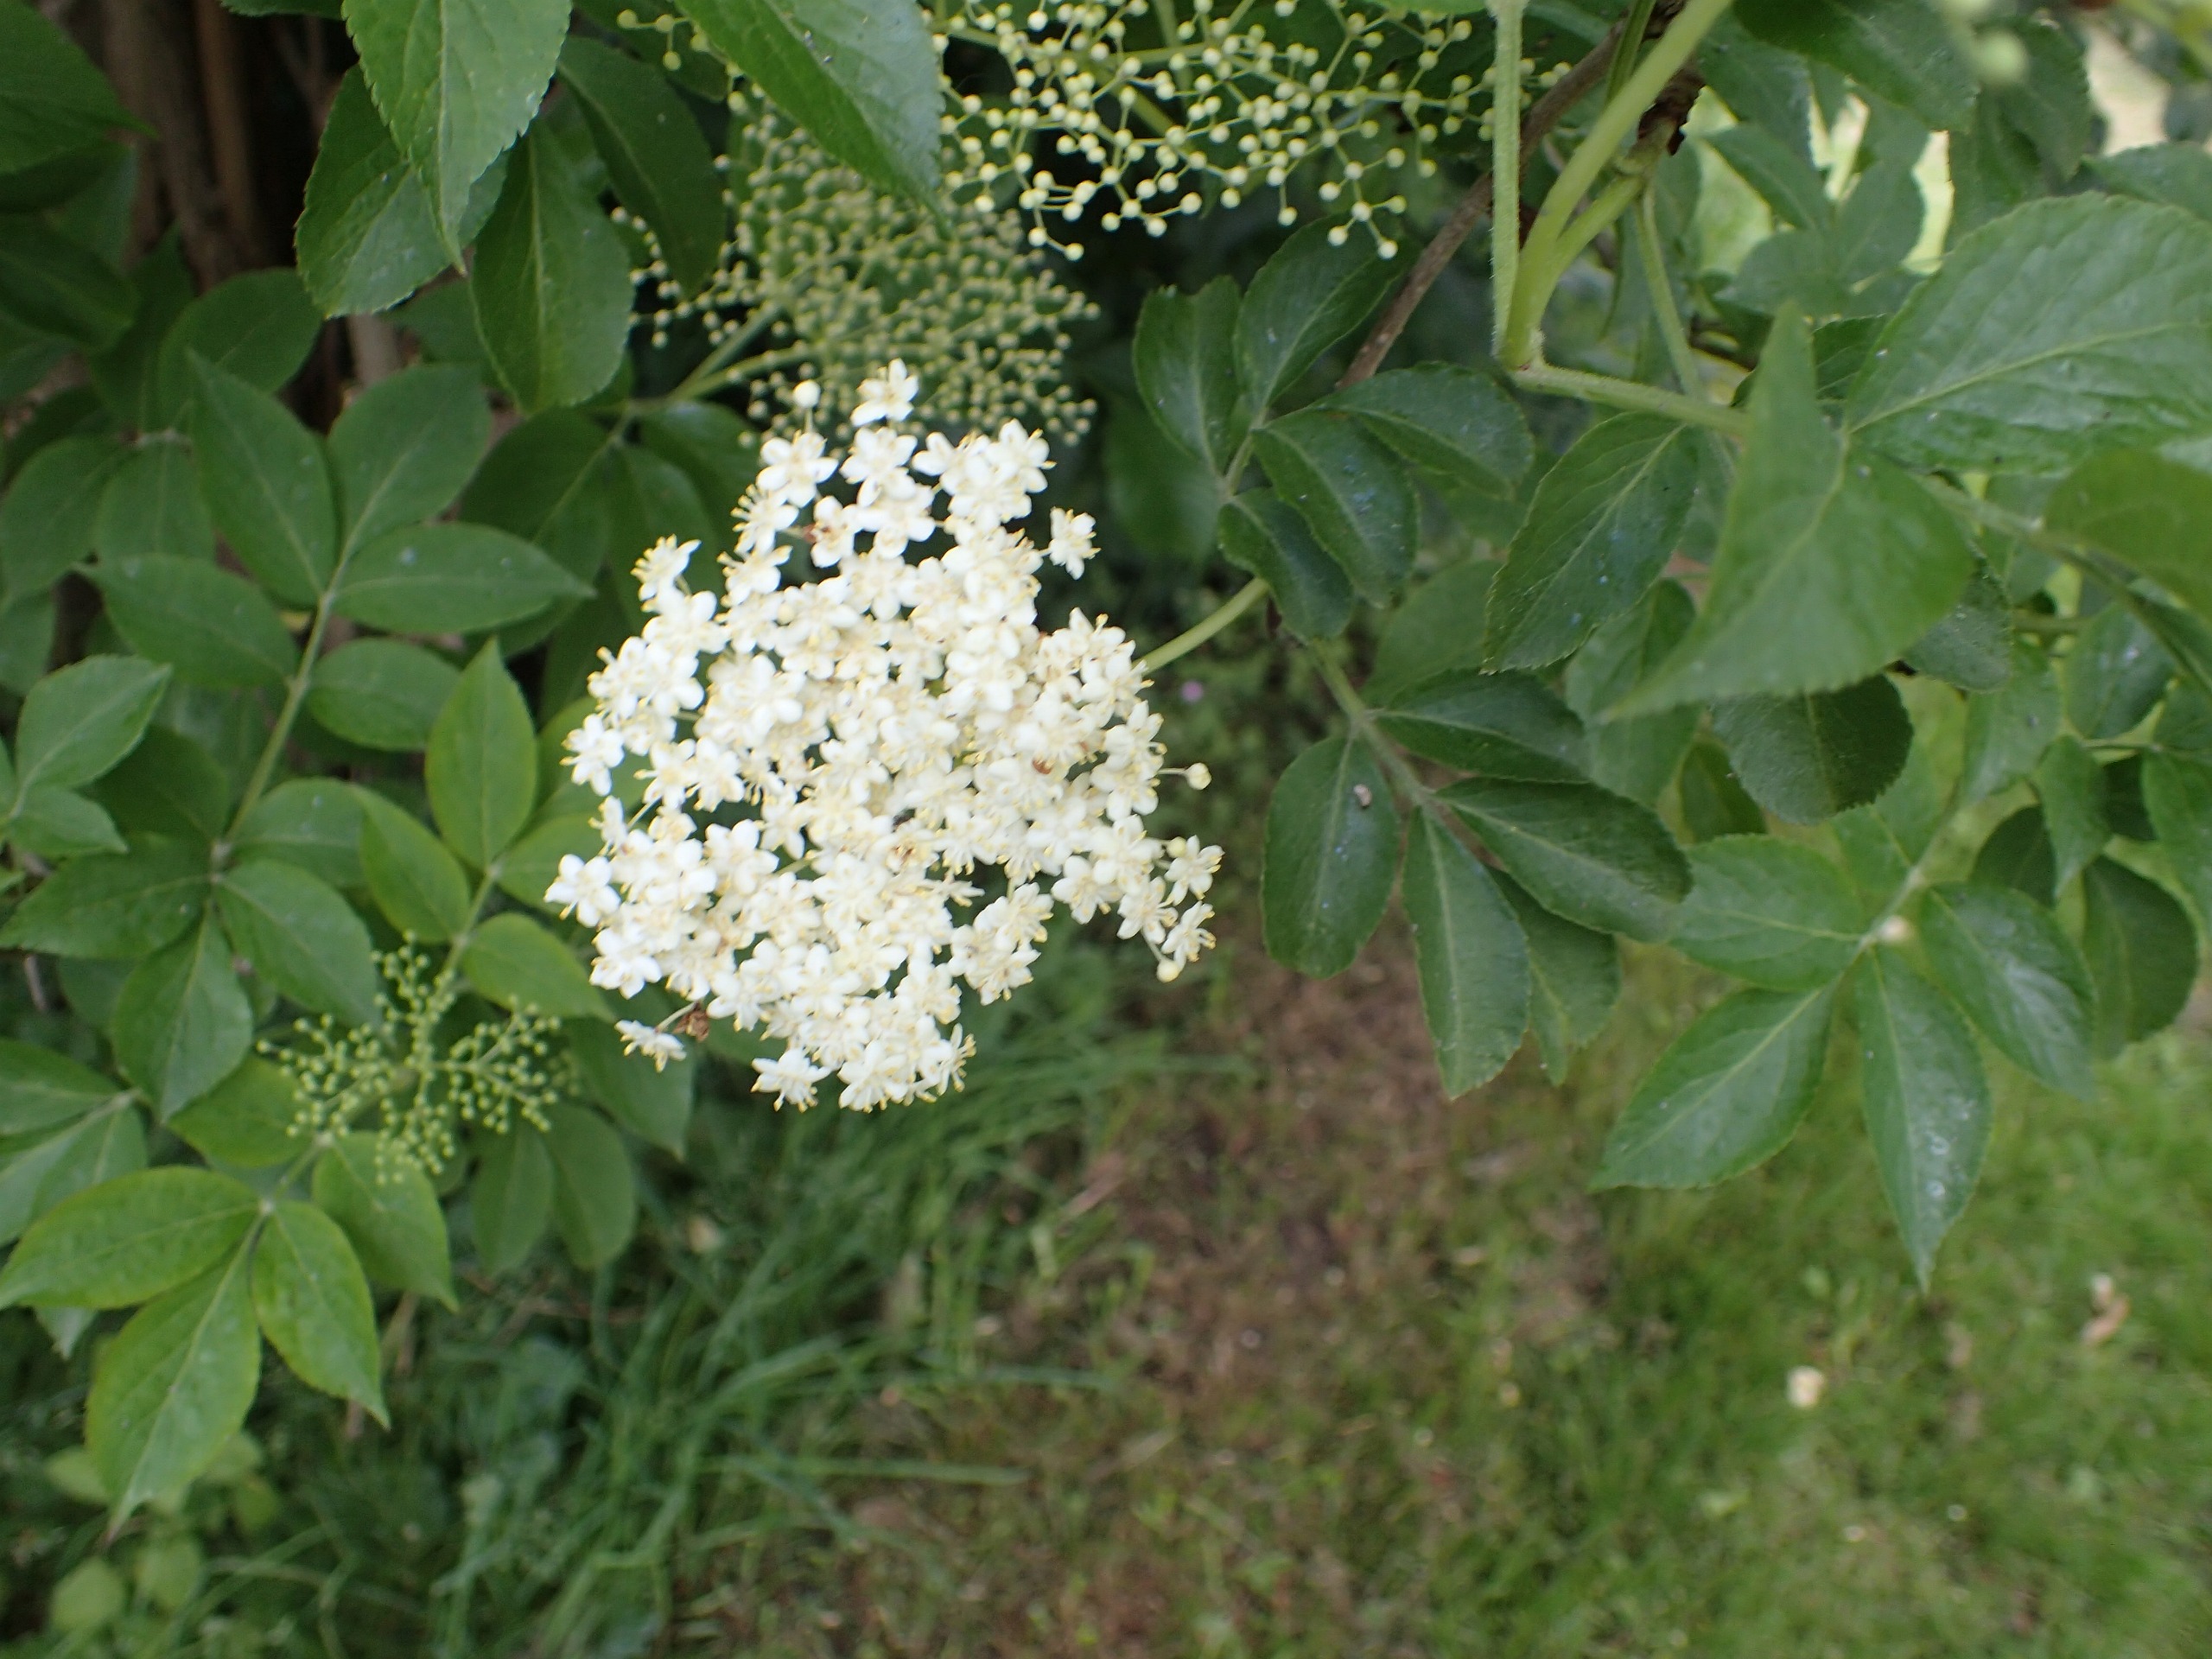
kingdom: Plantae
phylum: Tracheophyta
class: Magnoliopsida
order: Dipsacales
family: Viburnaceae
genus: Sambucus
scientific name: Sambucus nigra
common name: Almindelig hyld
